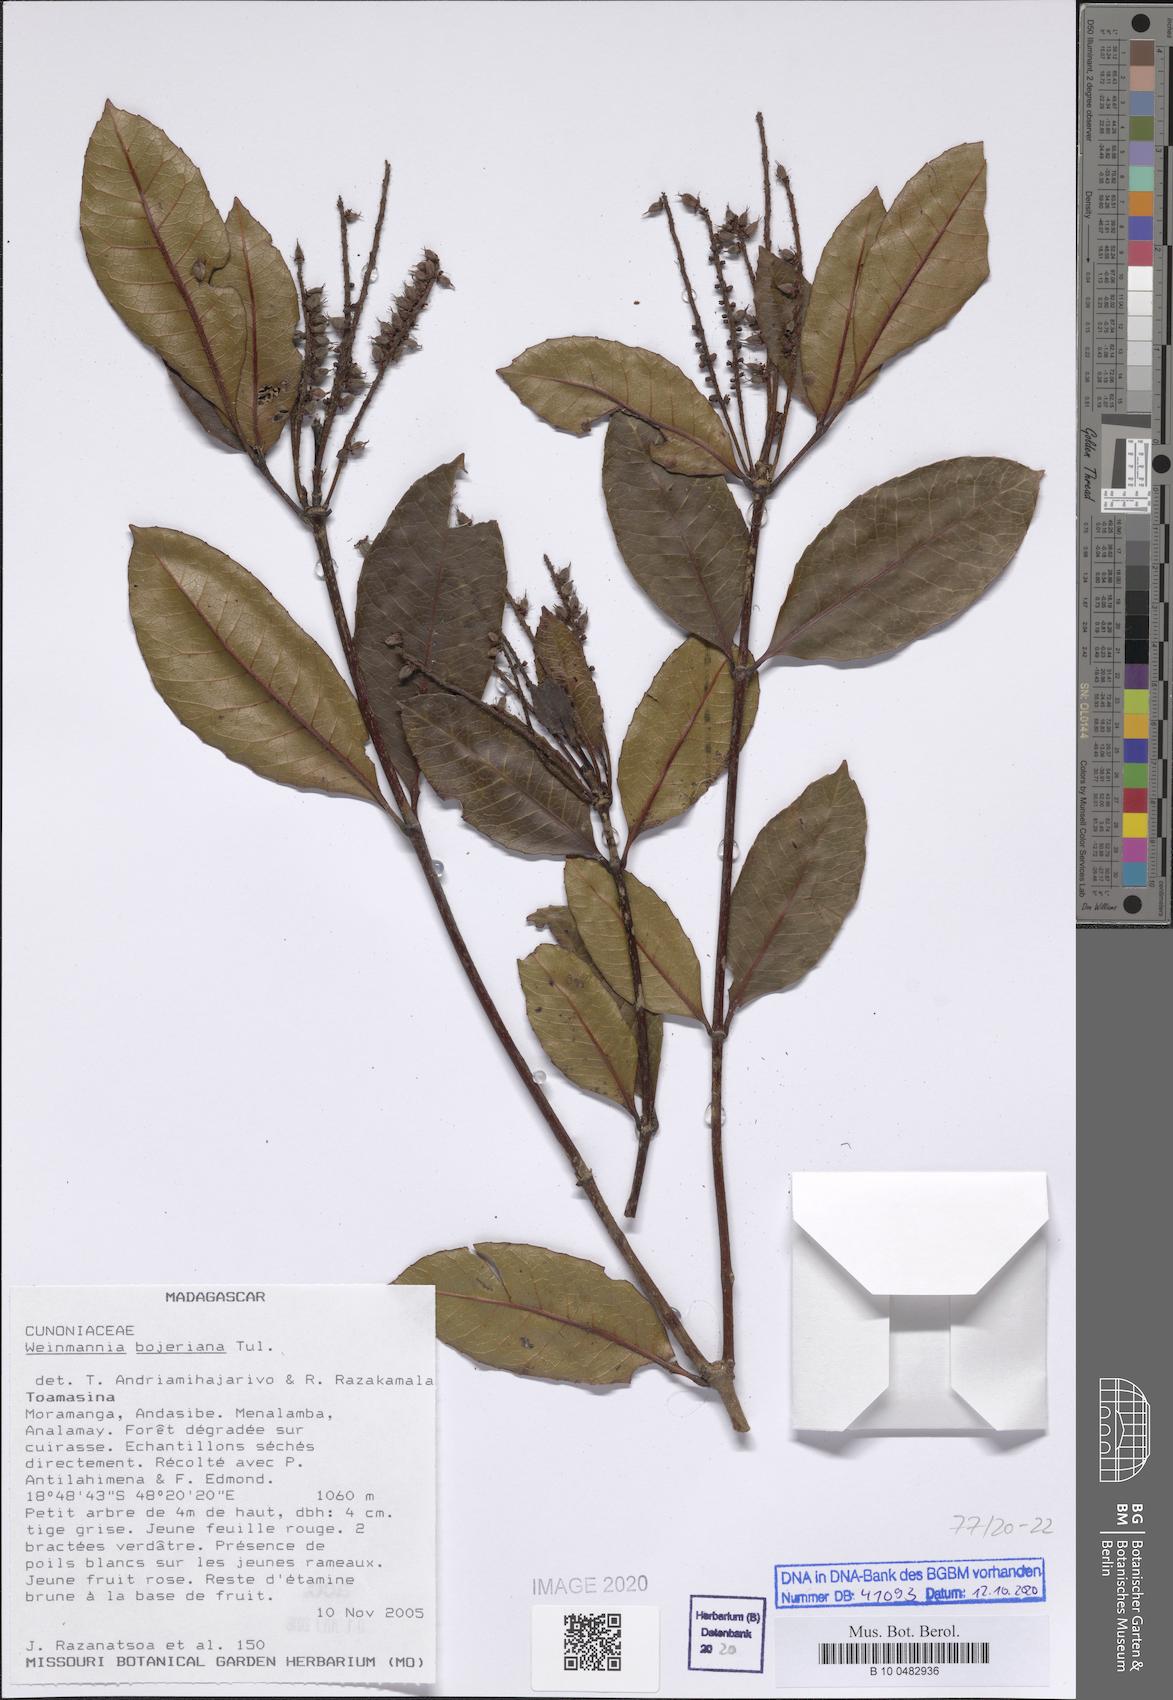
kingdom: Plantae
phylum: Tracheophyta
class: Magnoliopsida
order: Oxalidales
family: Cunoniaceae
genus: Pterophylla
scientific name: Pterophylla bojeriana
